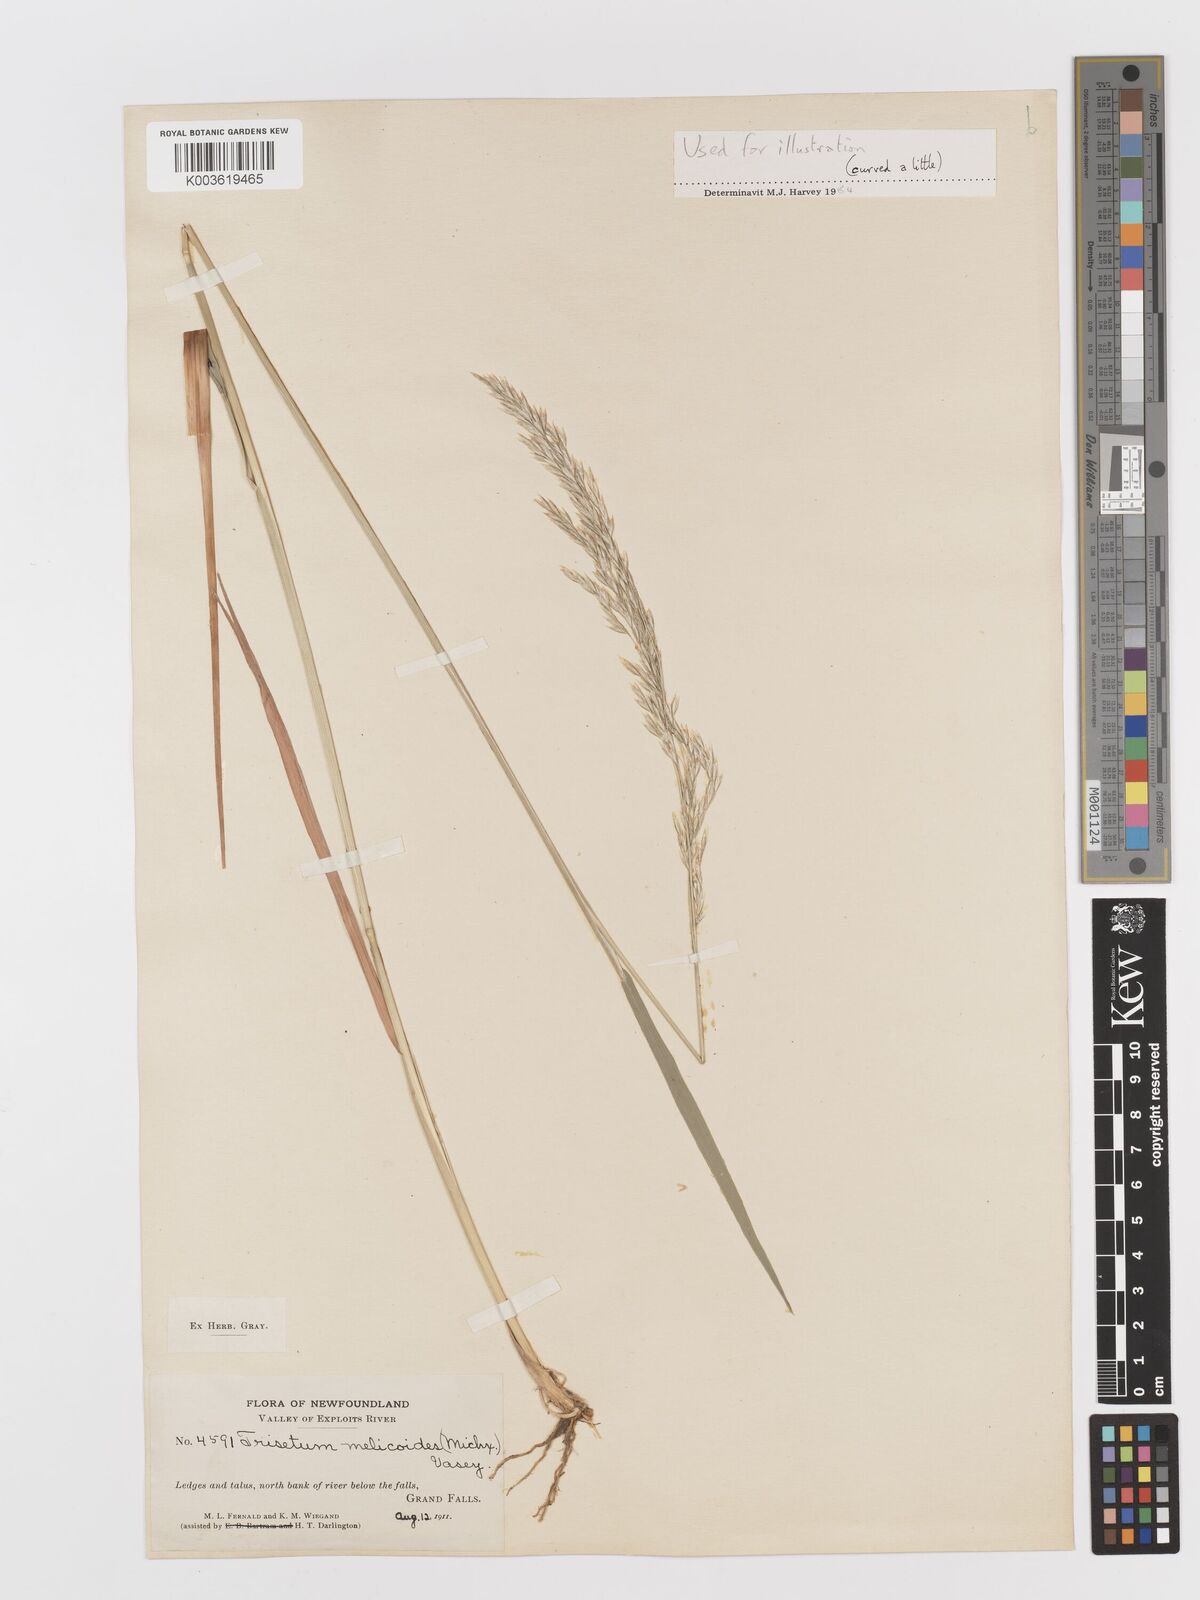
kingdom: Plantae
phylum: Tracheophyta
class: Liliopsida
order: Poales
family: Poaceae
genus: Graphephorum
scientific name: Graphephorum melicoides
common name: False melic
